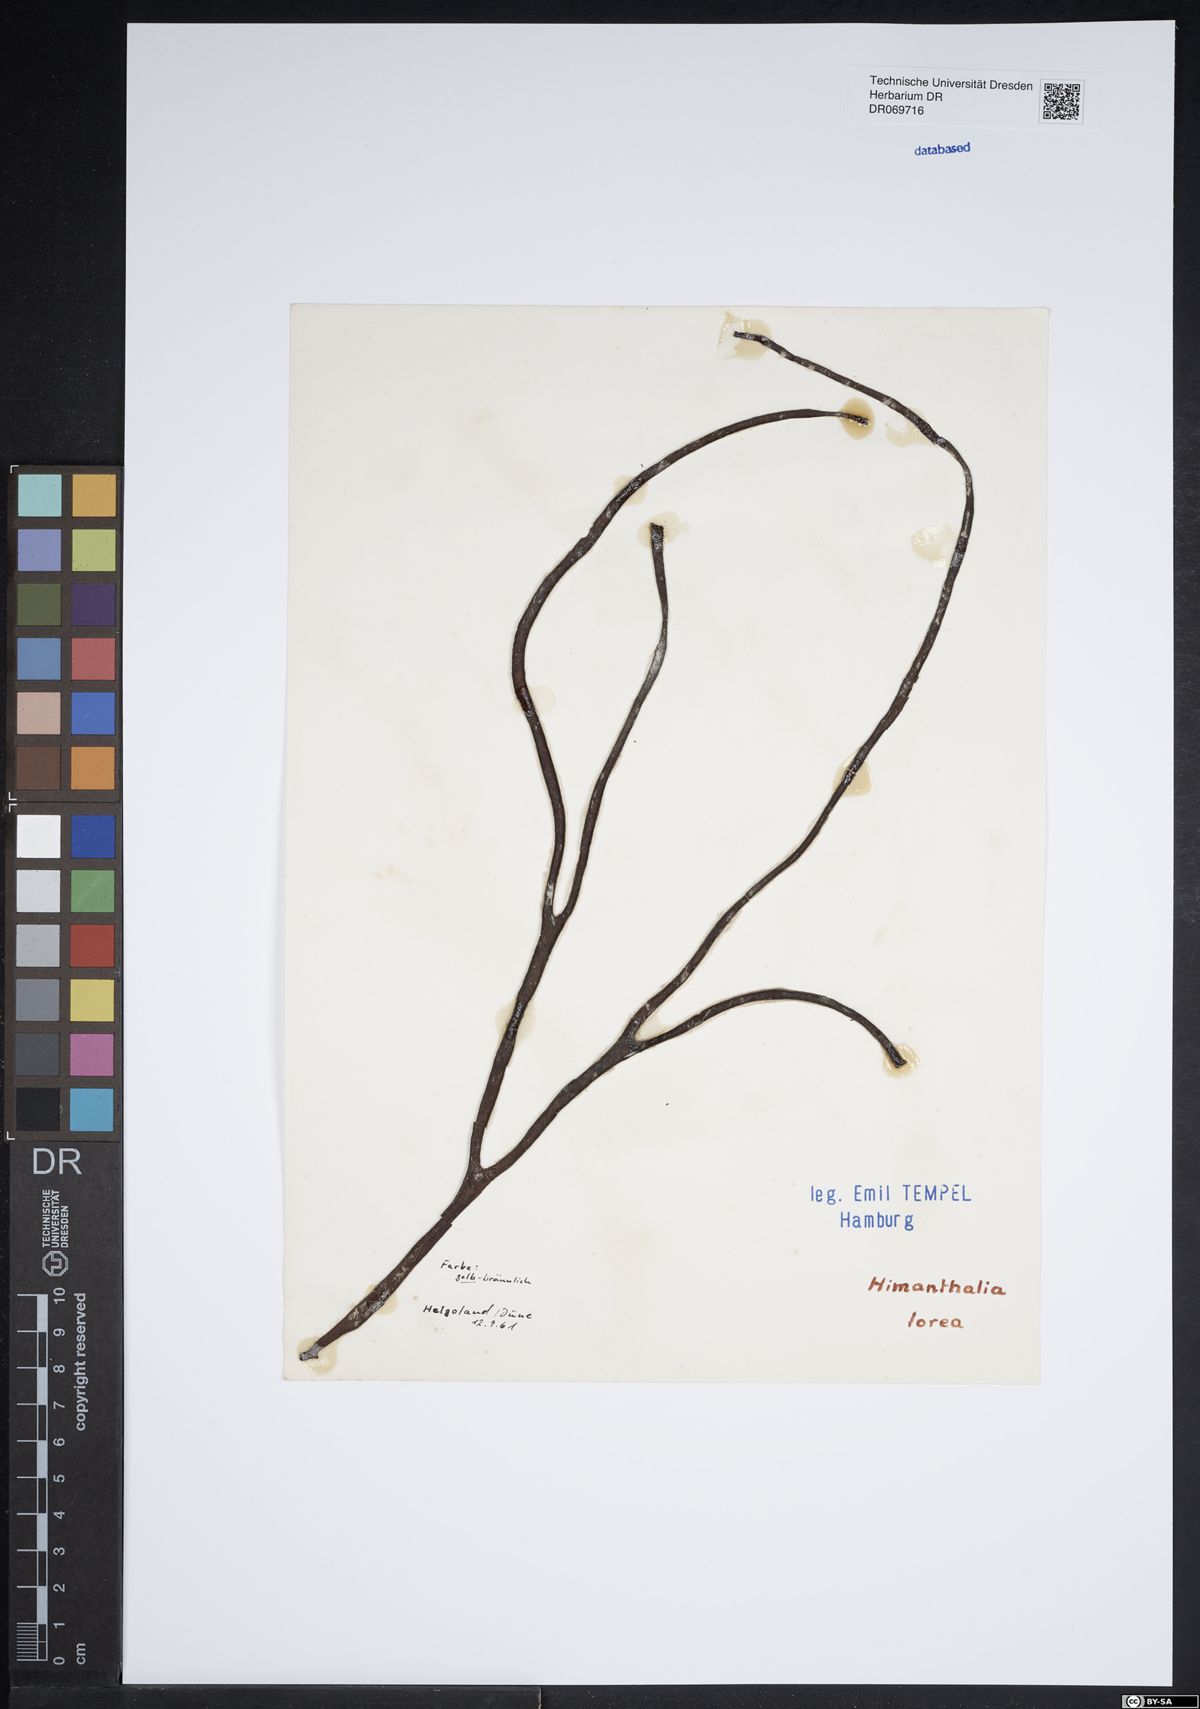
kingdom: Chromista
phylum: Ochrophyta
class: Phaeophyceae
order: Fucales
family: Himanthaliaceae
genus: Himanthalia
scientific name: Himanthalia elongata
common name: Sea-thong
